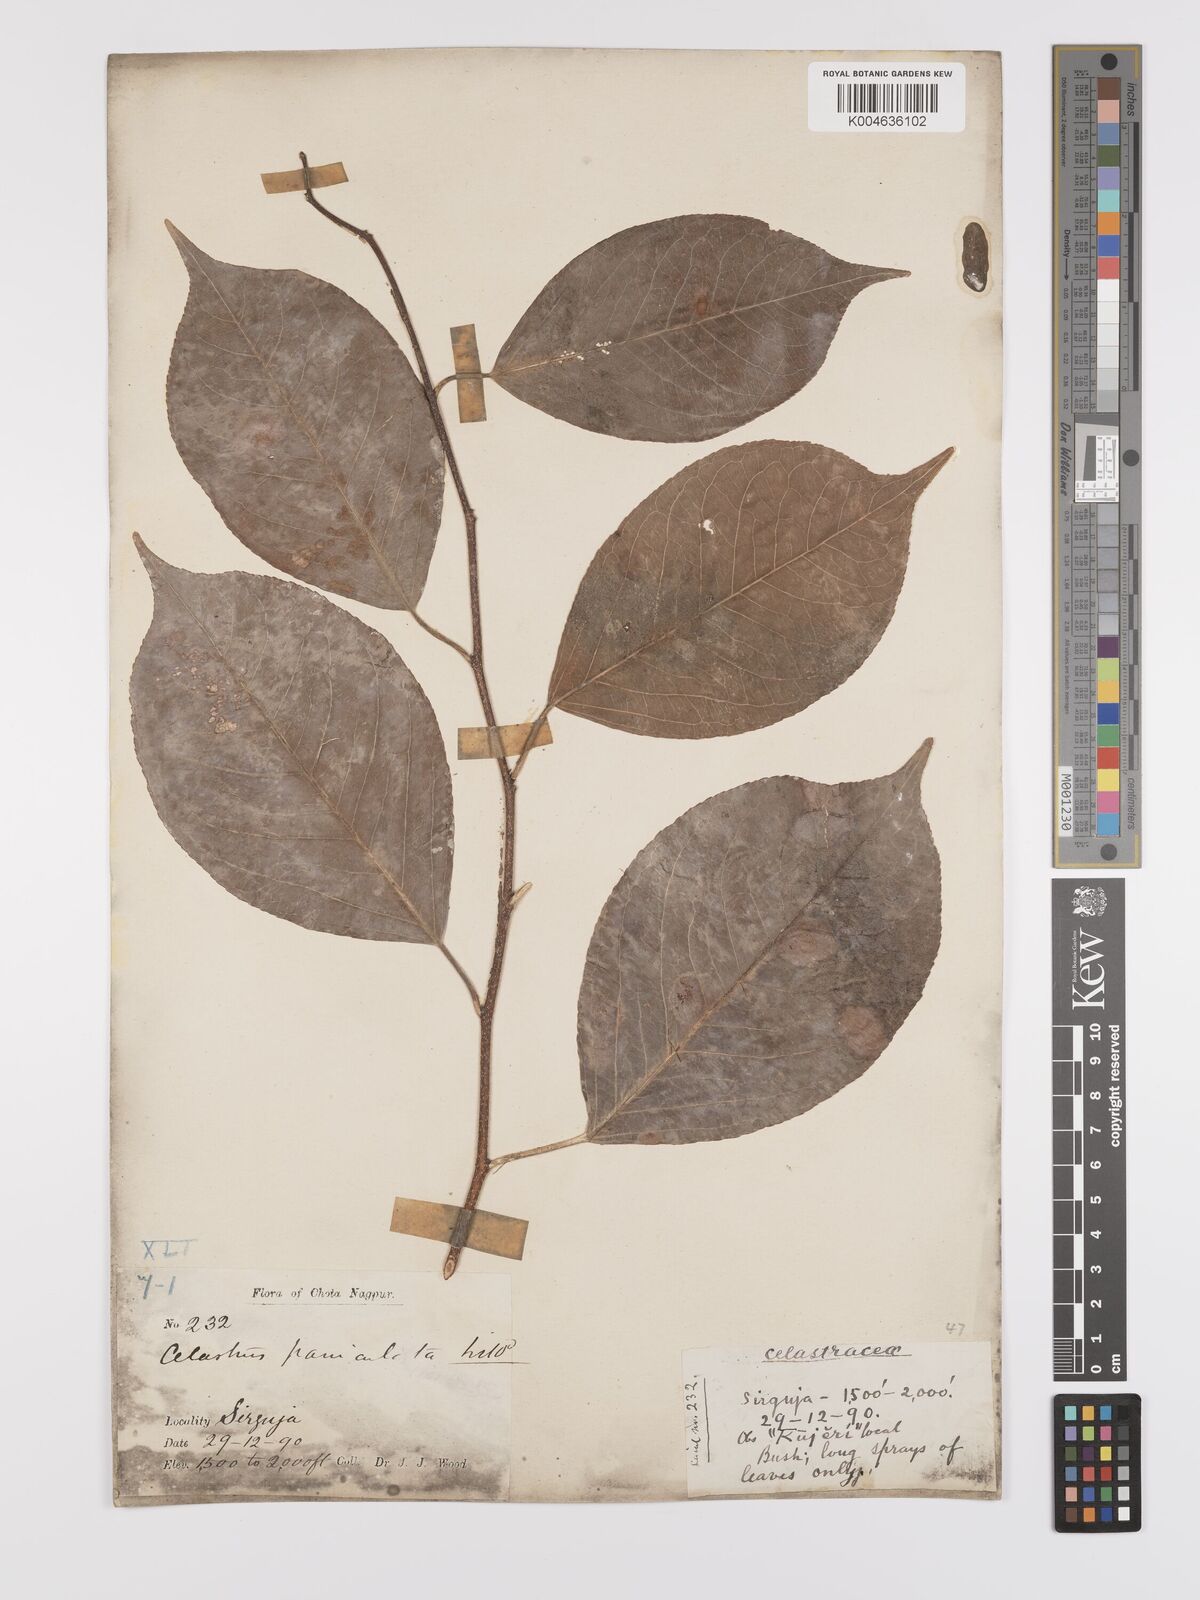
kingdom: Plantae
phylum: Tracheophyta
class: Magnoliopsida
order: Celastrales
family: Celastraceae
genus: Celastrus
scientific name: Celastrus paniculatus
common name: Oriental bittersweet; staff vine
